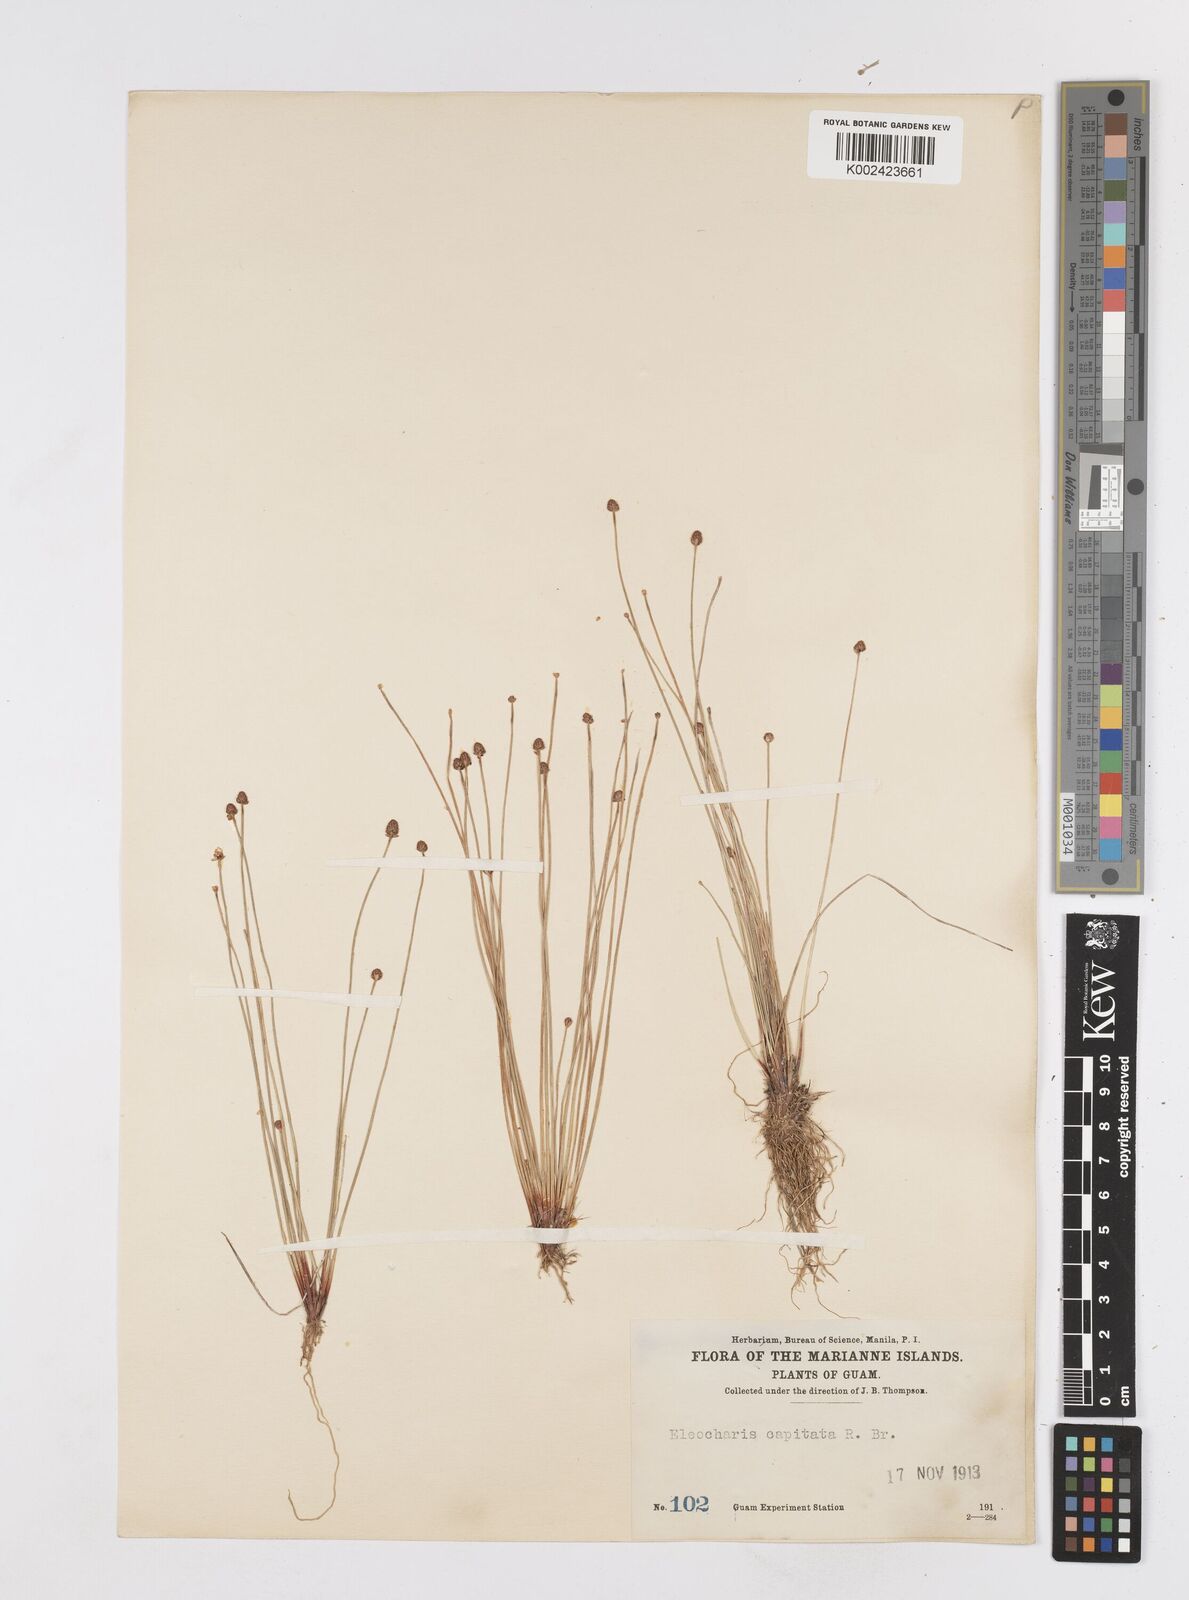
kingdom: Plantae
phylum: Tracheophyta
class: Liliopsida
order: Poales
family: Cyperaceae
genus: Eleocharis
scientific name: Eleocharis cylindrostachys
